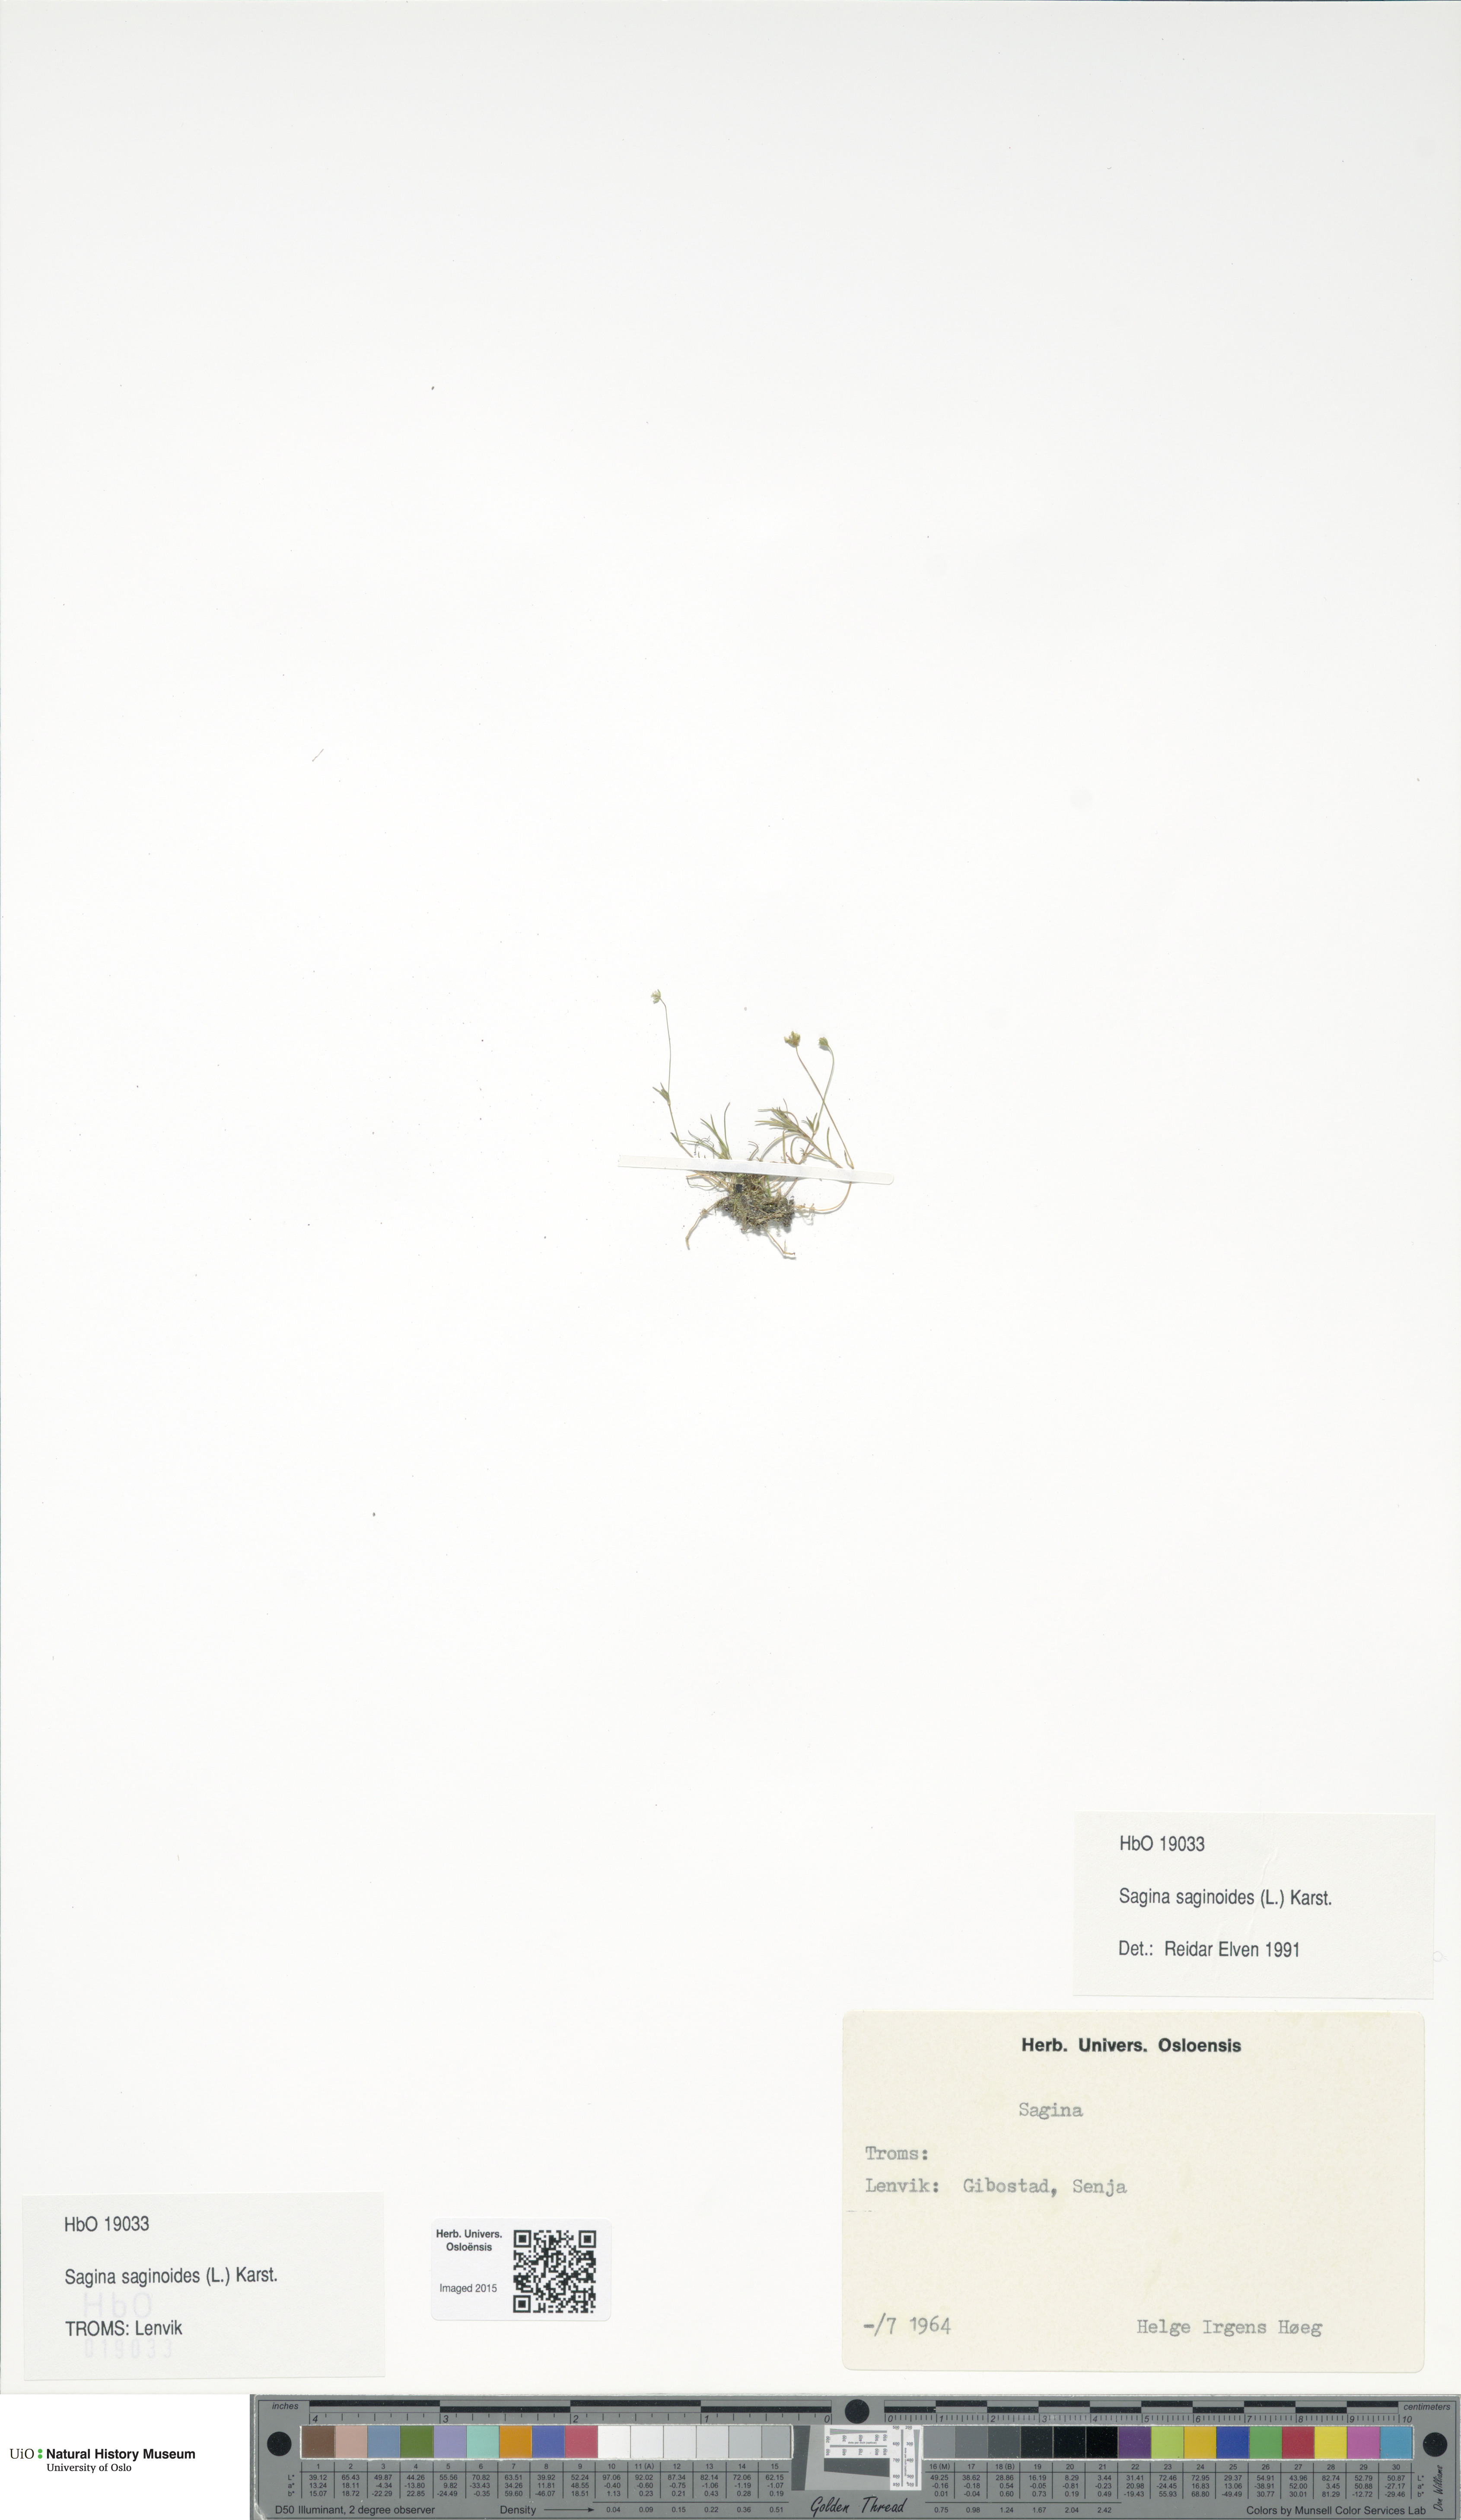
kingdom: Plantae
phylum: Tracheophyta
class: Magnoliopsida
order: Caryophyllales
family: Caryophyllaceae
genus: Sagina
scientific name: Sagina saginoides
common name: Alpine pearlwort
